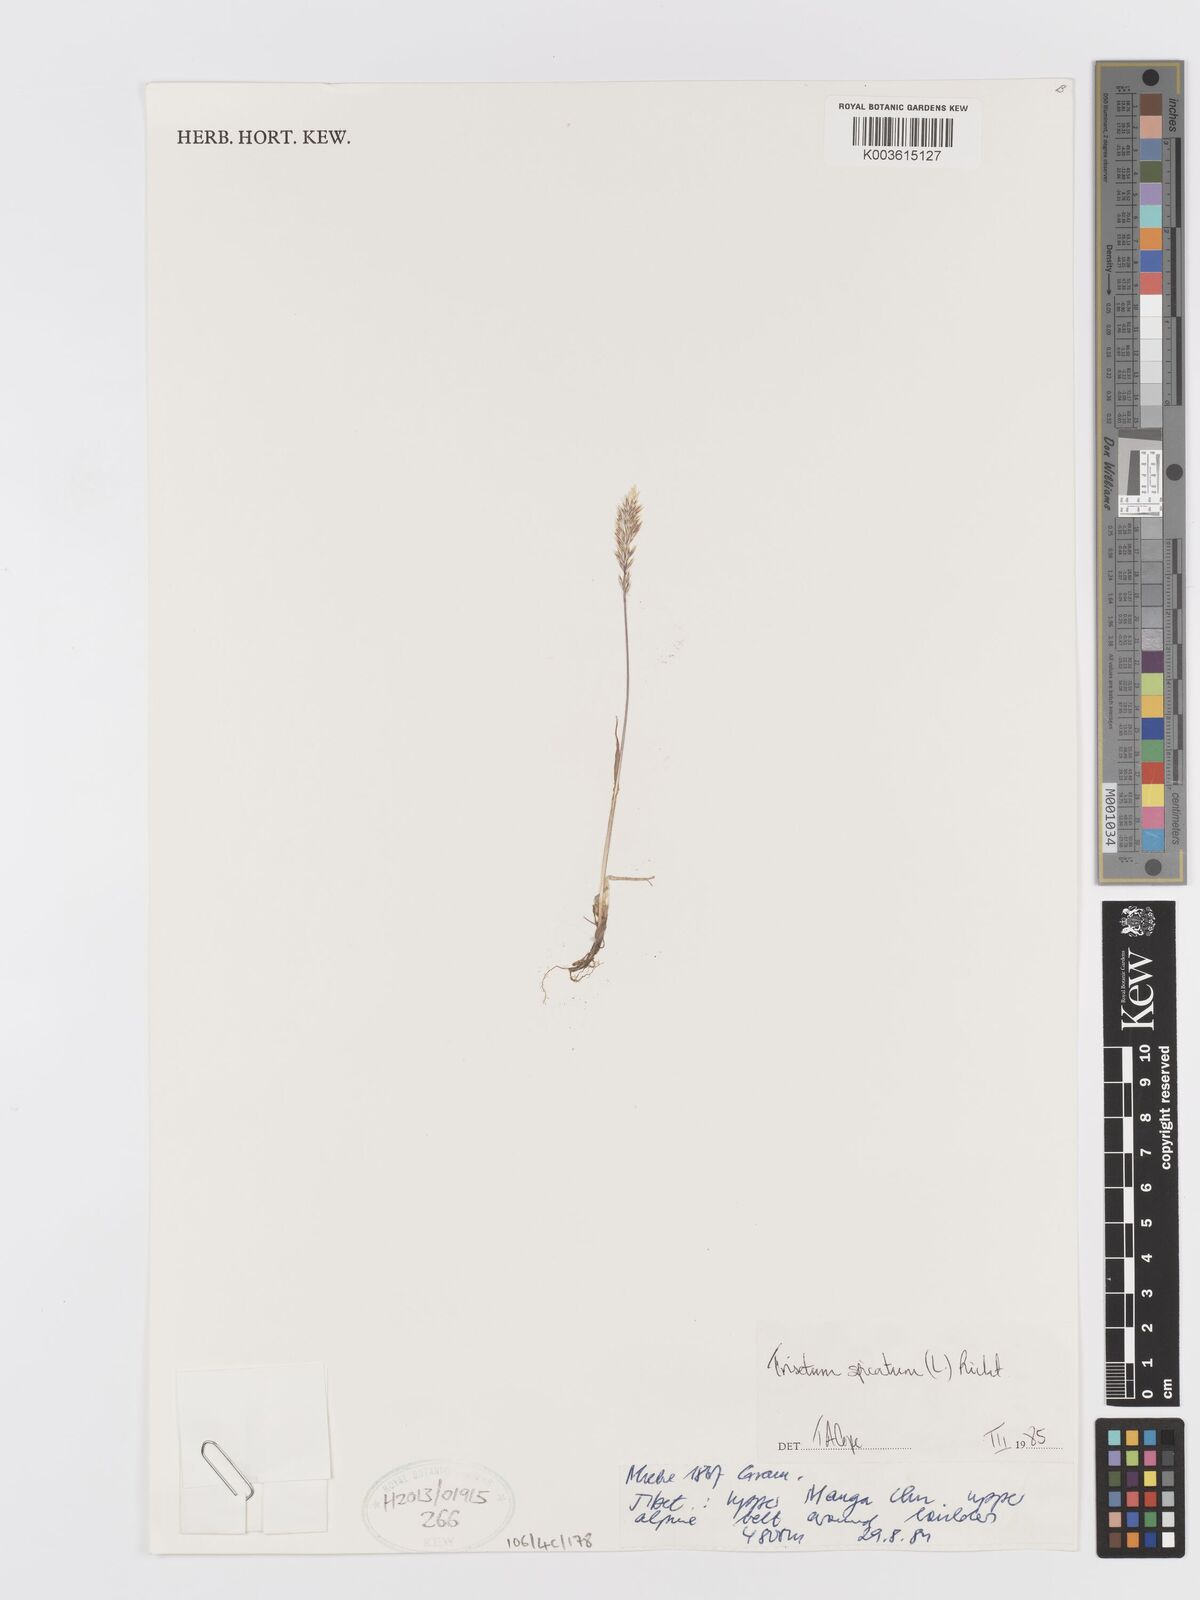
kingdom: Plantae
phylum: Tracheophyta
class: Liliopsida
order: Poales
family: Poaceae
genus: Koeleria
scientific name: Koeleria spicata
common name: Mountain trisetum
